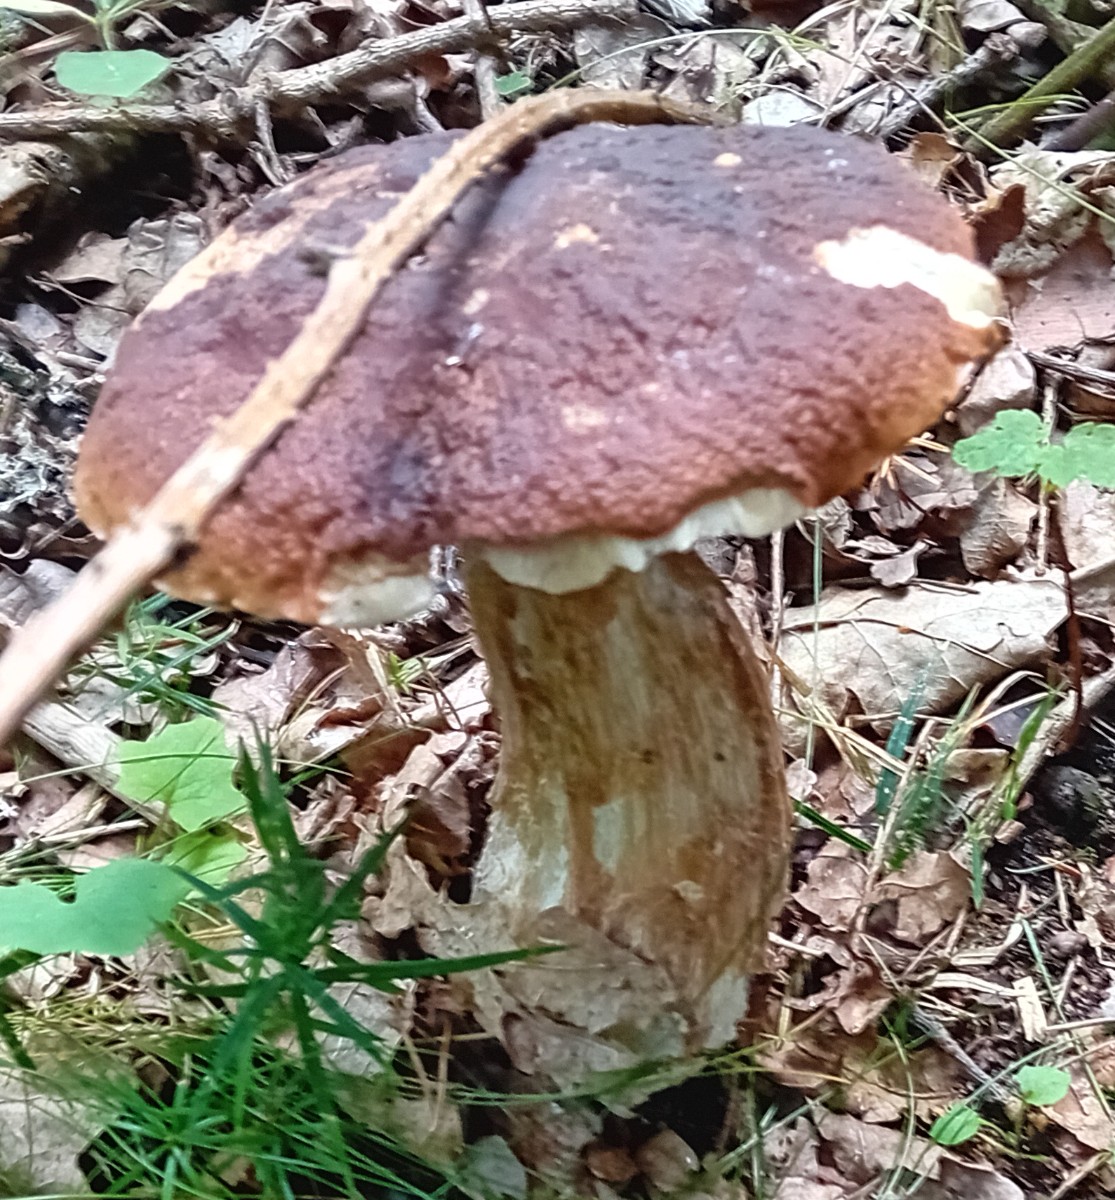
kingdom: Fungi
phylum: Basidiomycota
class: Agaricomycetes
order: Boletales
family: Boletaceae
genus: Boletus
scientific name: Boletus edulis
